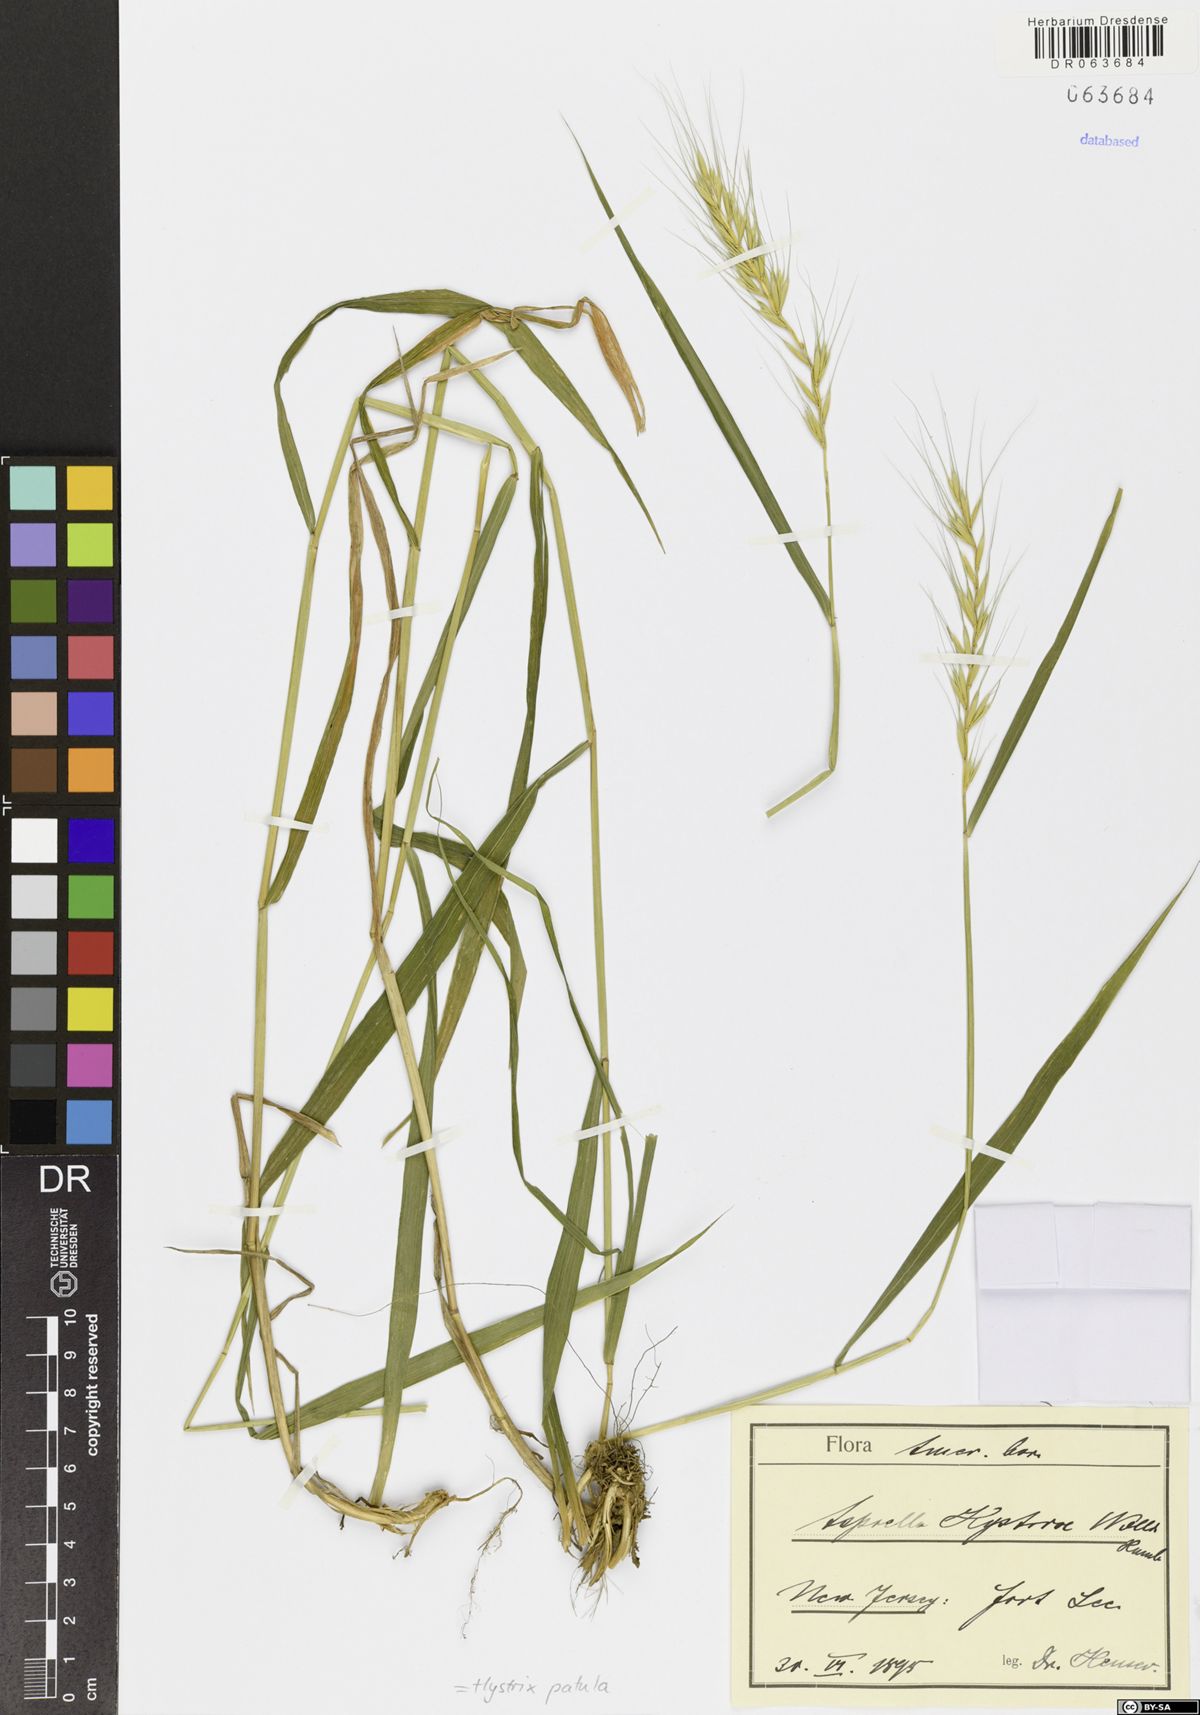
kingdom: Plantae
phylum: Tracheophyta
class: Liliopsida
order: Poales
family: Poaceae
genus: Elymus
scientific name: Elymus hystrix
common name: Bottlebrush grass
